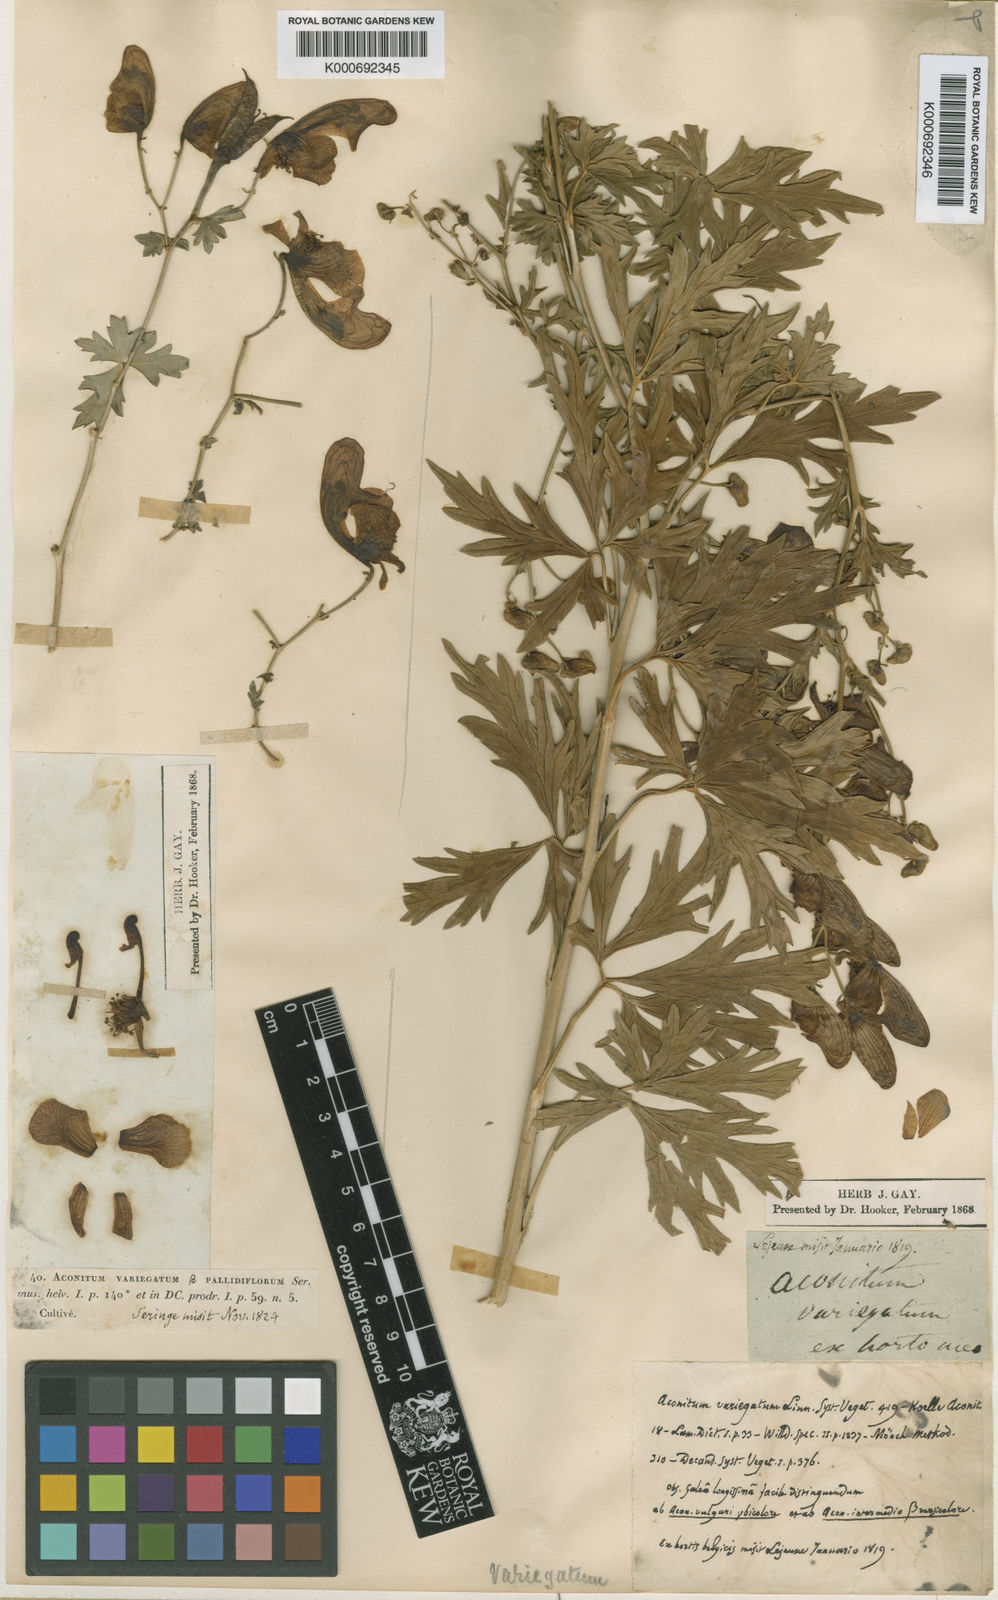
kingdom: Plantae
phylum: Tracheophyta
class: Magnoliopsida
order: Ranunculales
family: Ranunculaceae
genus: Aconitum
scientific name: Aconitum variegatum
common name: Manchurian monkshood
